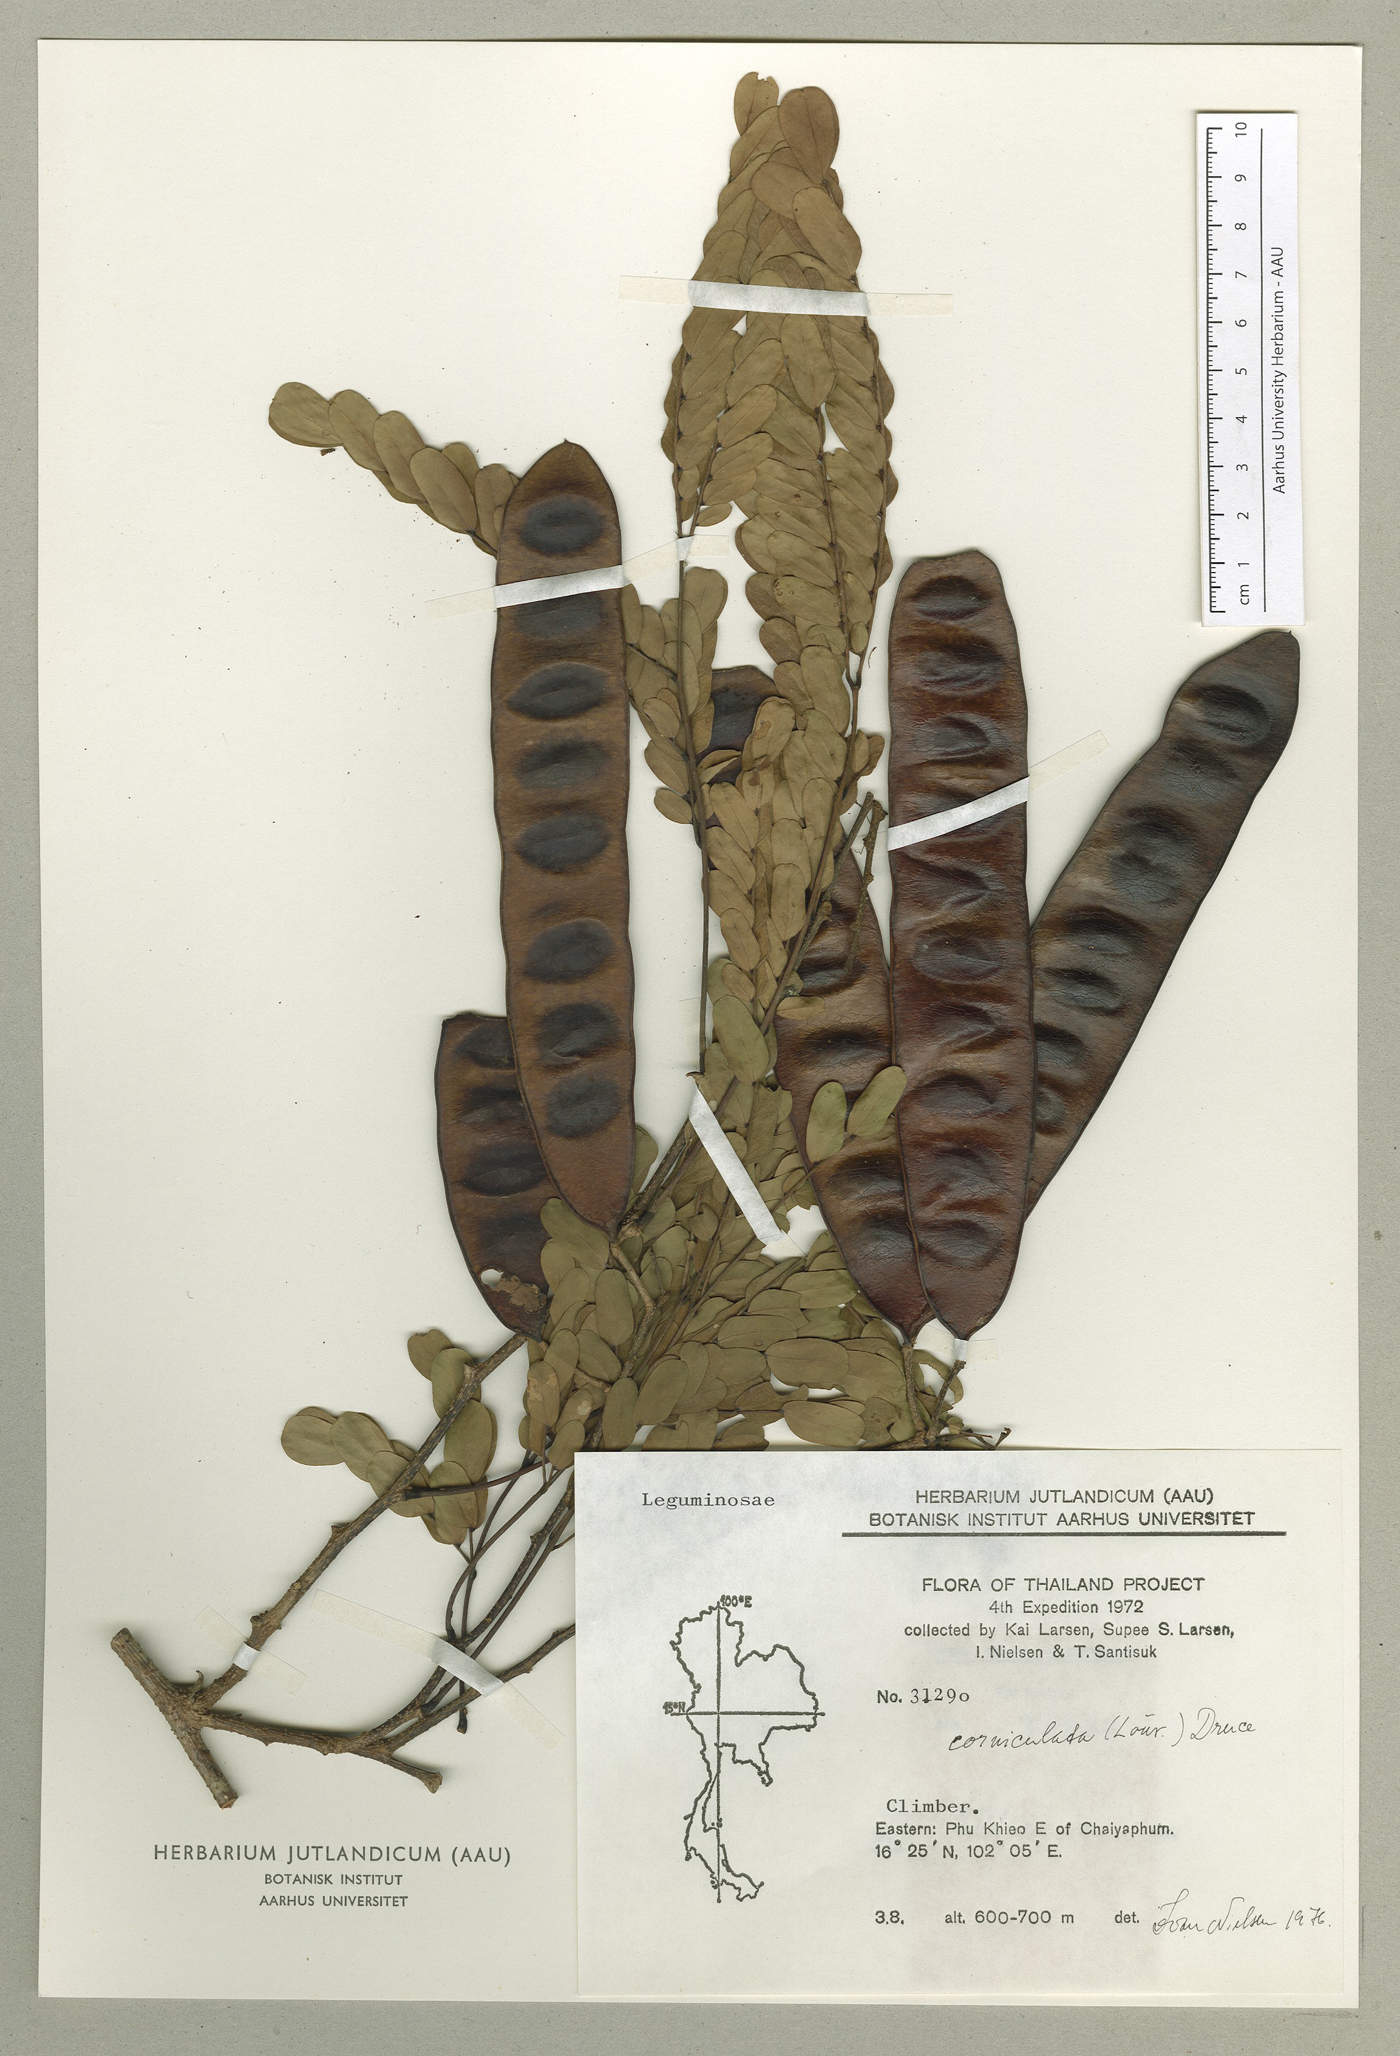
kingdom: Plantae
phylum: Tracheophyta
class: Magnoliopsida
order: Fabales
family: Fabaceae
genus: Albizia
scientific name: Albizia corniculata
